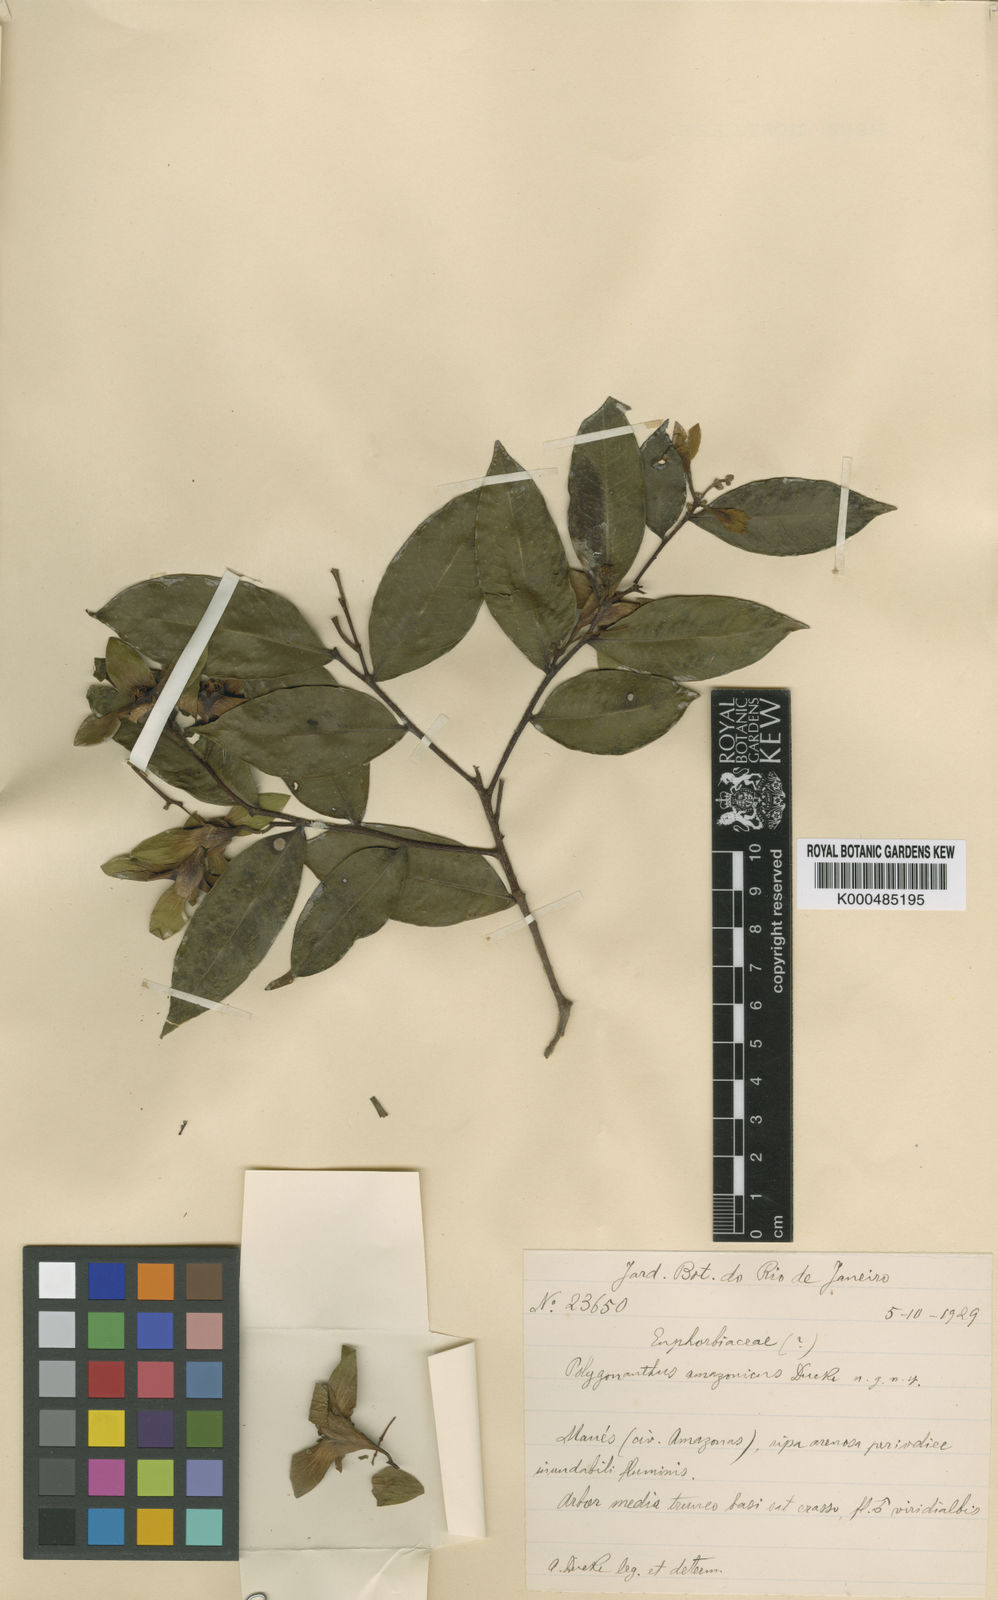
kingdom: Plantae
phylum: Tracheophyta
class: Magnoliopsida
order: Cucurbitales
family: Anisophylleaceae
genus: Polygonanthus
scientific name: Polygonanthus amazonicus
